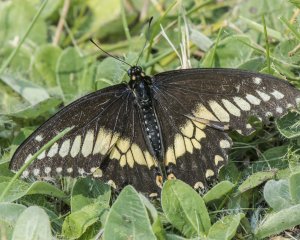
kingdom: Animalia
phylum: Arthropoda
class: Insecta
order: Lepidoptera
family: Papilionidae
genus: Papilio
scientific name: Papilio polyxenes
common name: Black Swallowtail
